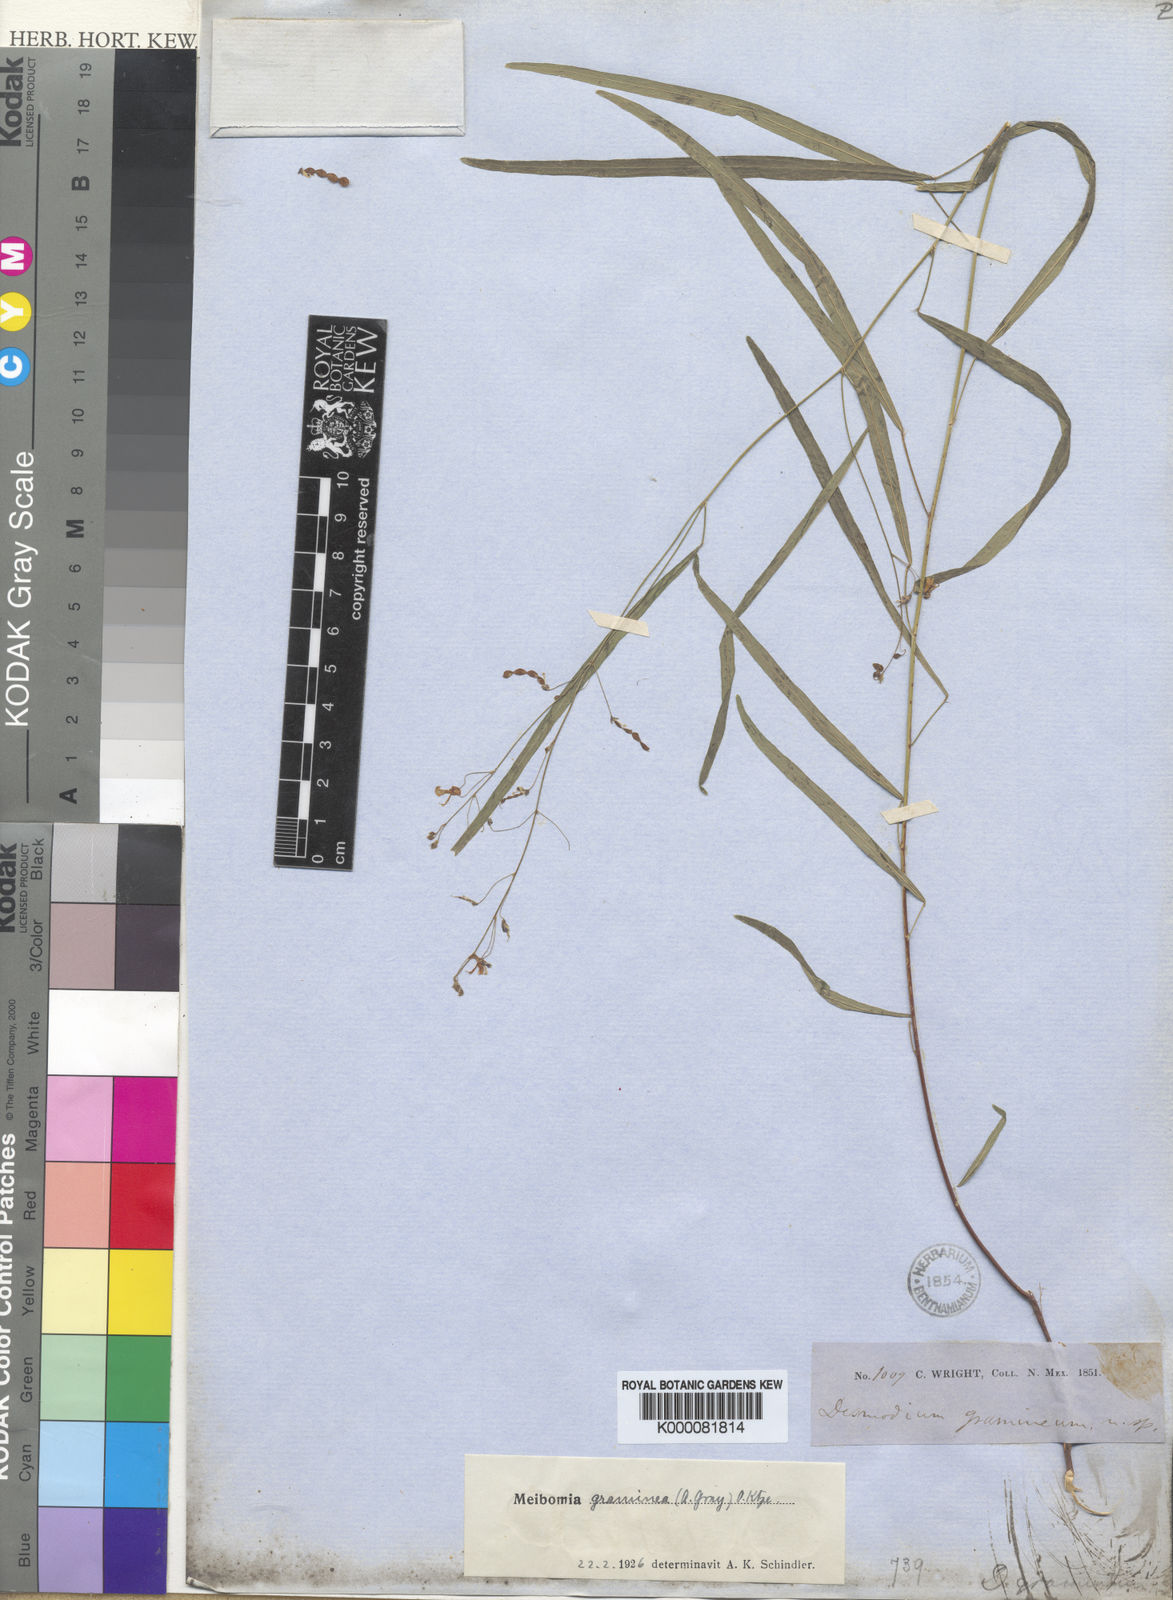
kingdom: Plantae
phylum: Tracheophyta
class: Magnoliopsida
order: Fabales
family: Fabaceae
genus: Desmodium
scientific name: Desmodium angustifolium
